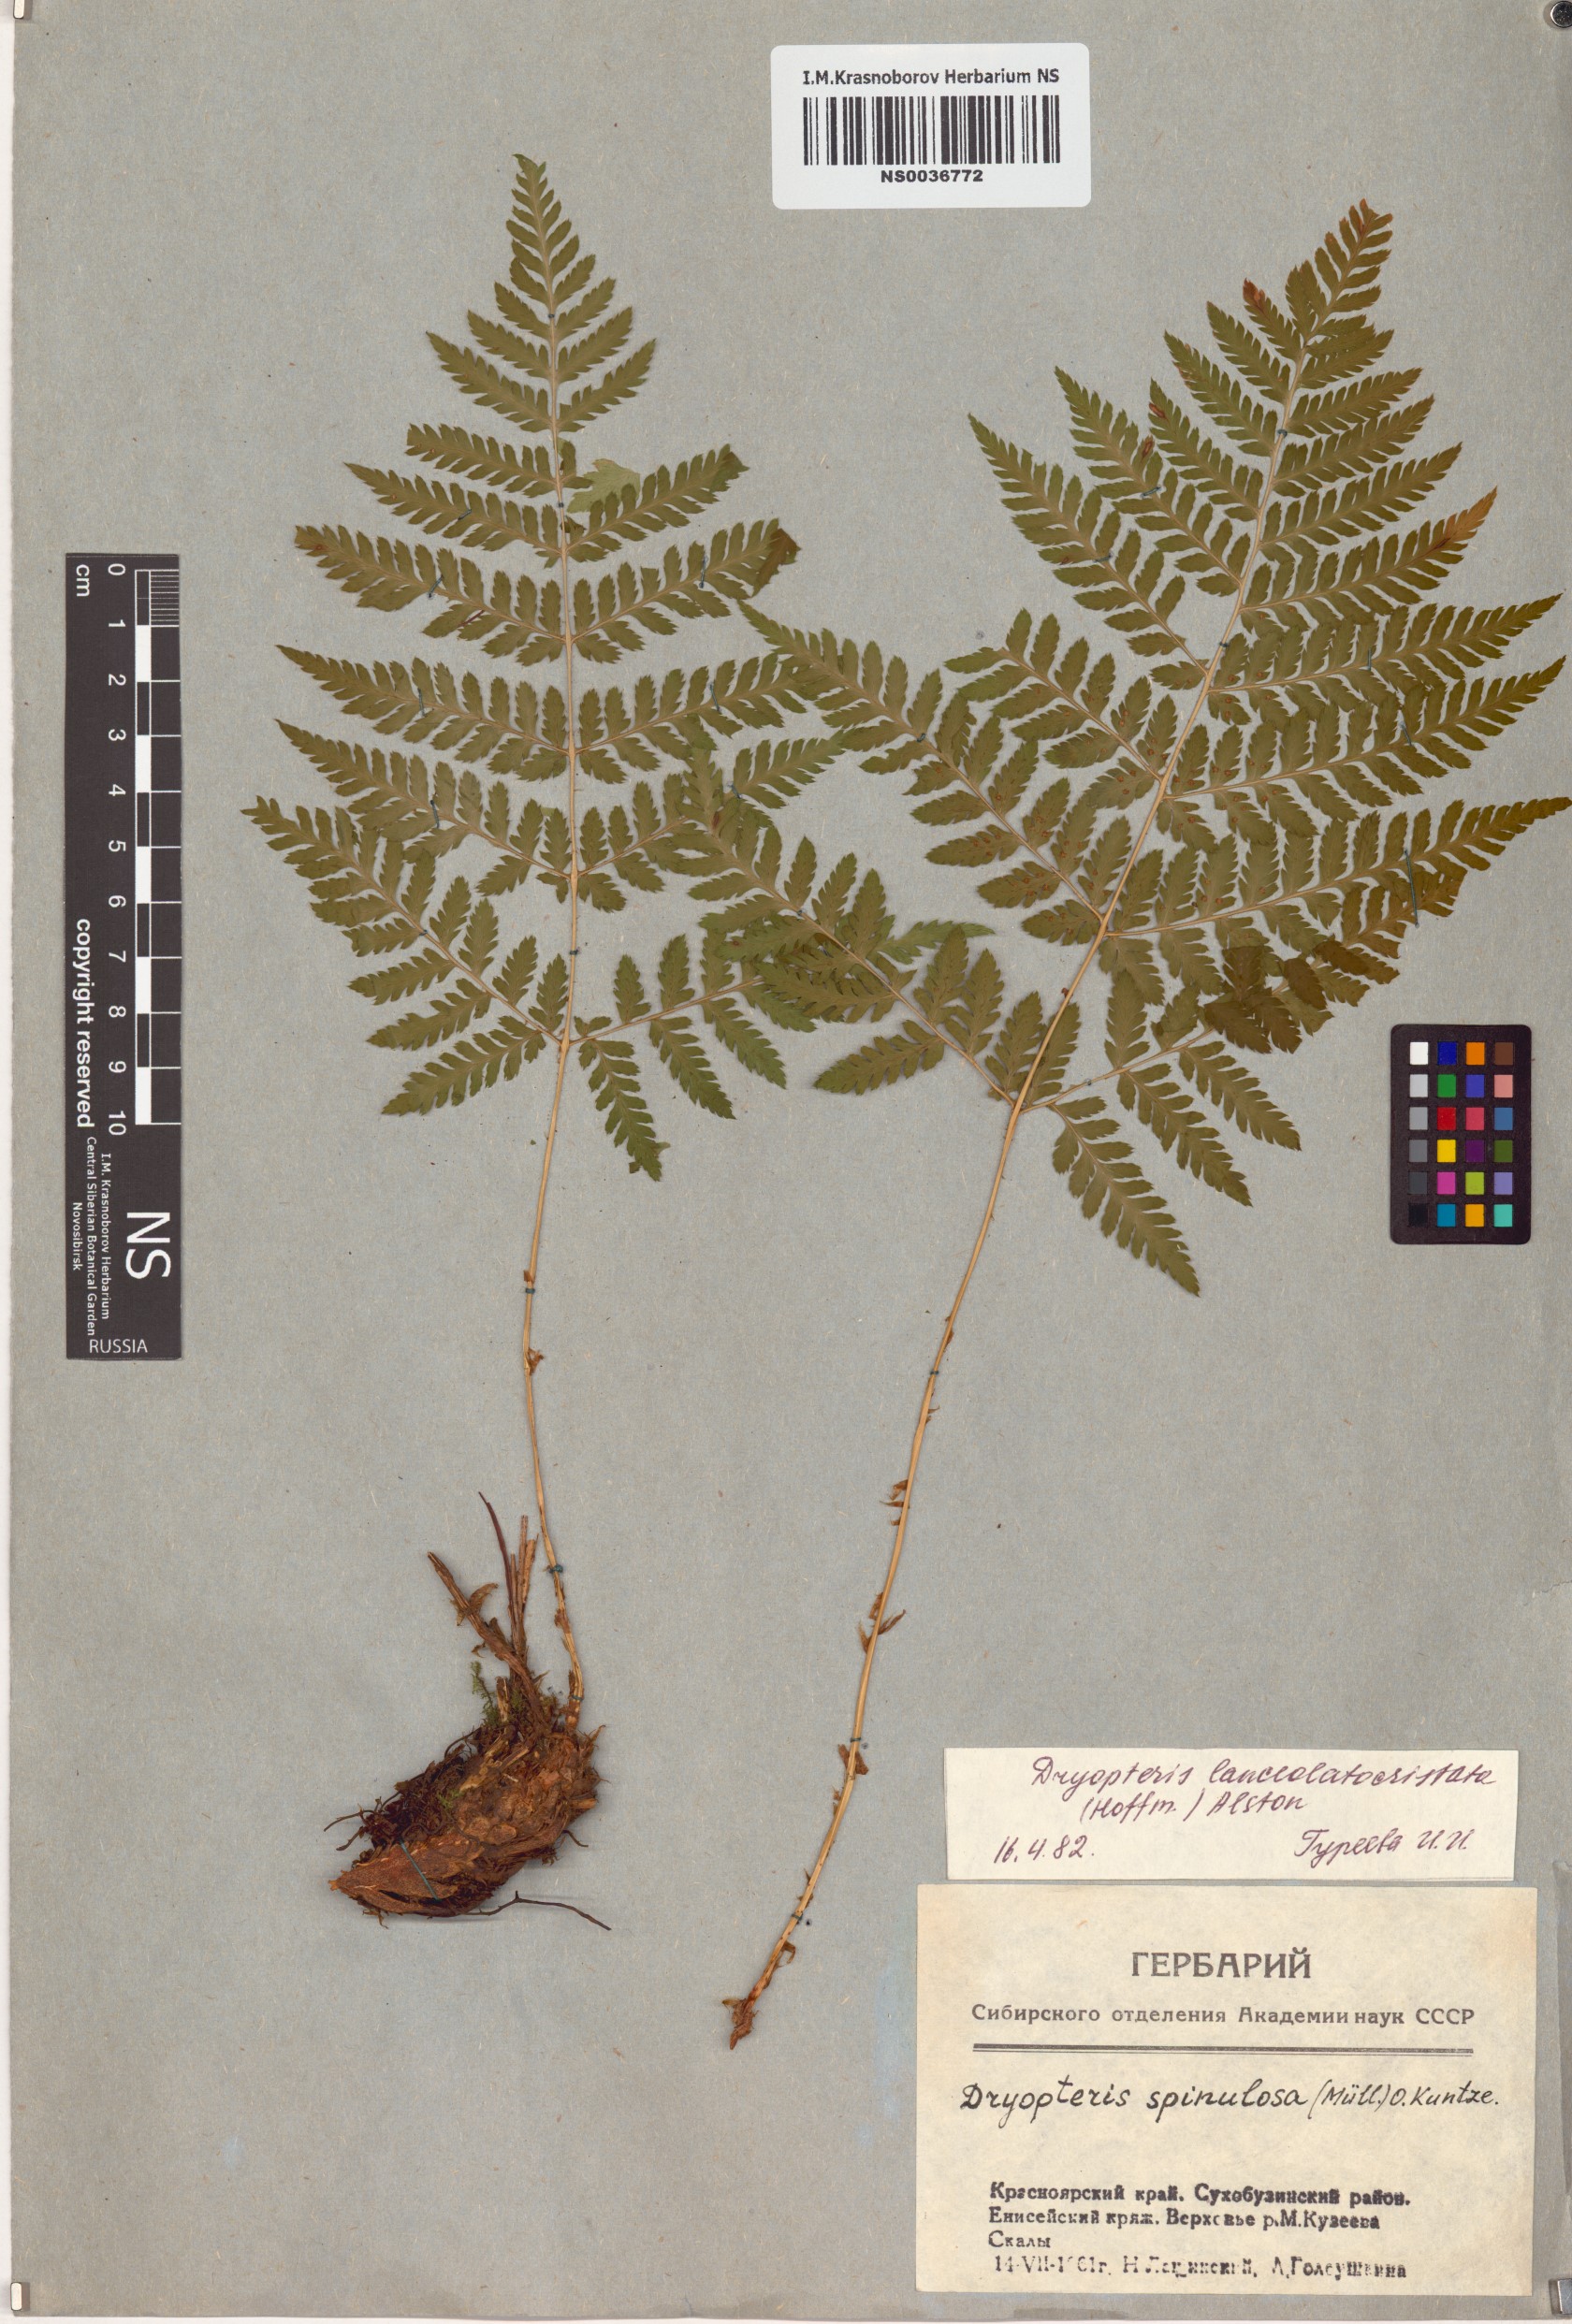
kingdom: Plantae
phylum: Tracheophyta
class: Polypodiopsida
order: Polypodiales
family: Dryopteridaceae
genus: Dryopteris
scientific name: Dryopteris carthusiana
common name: Narrow buckler-fern
